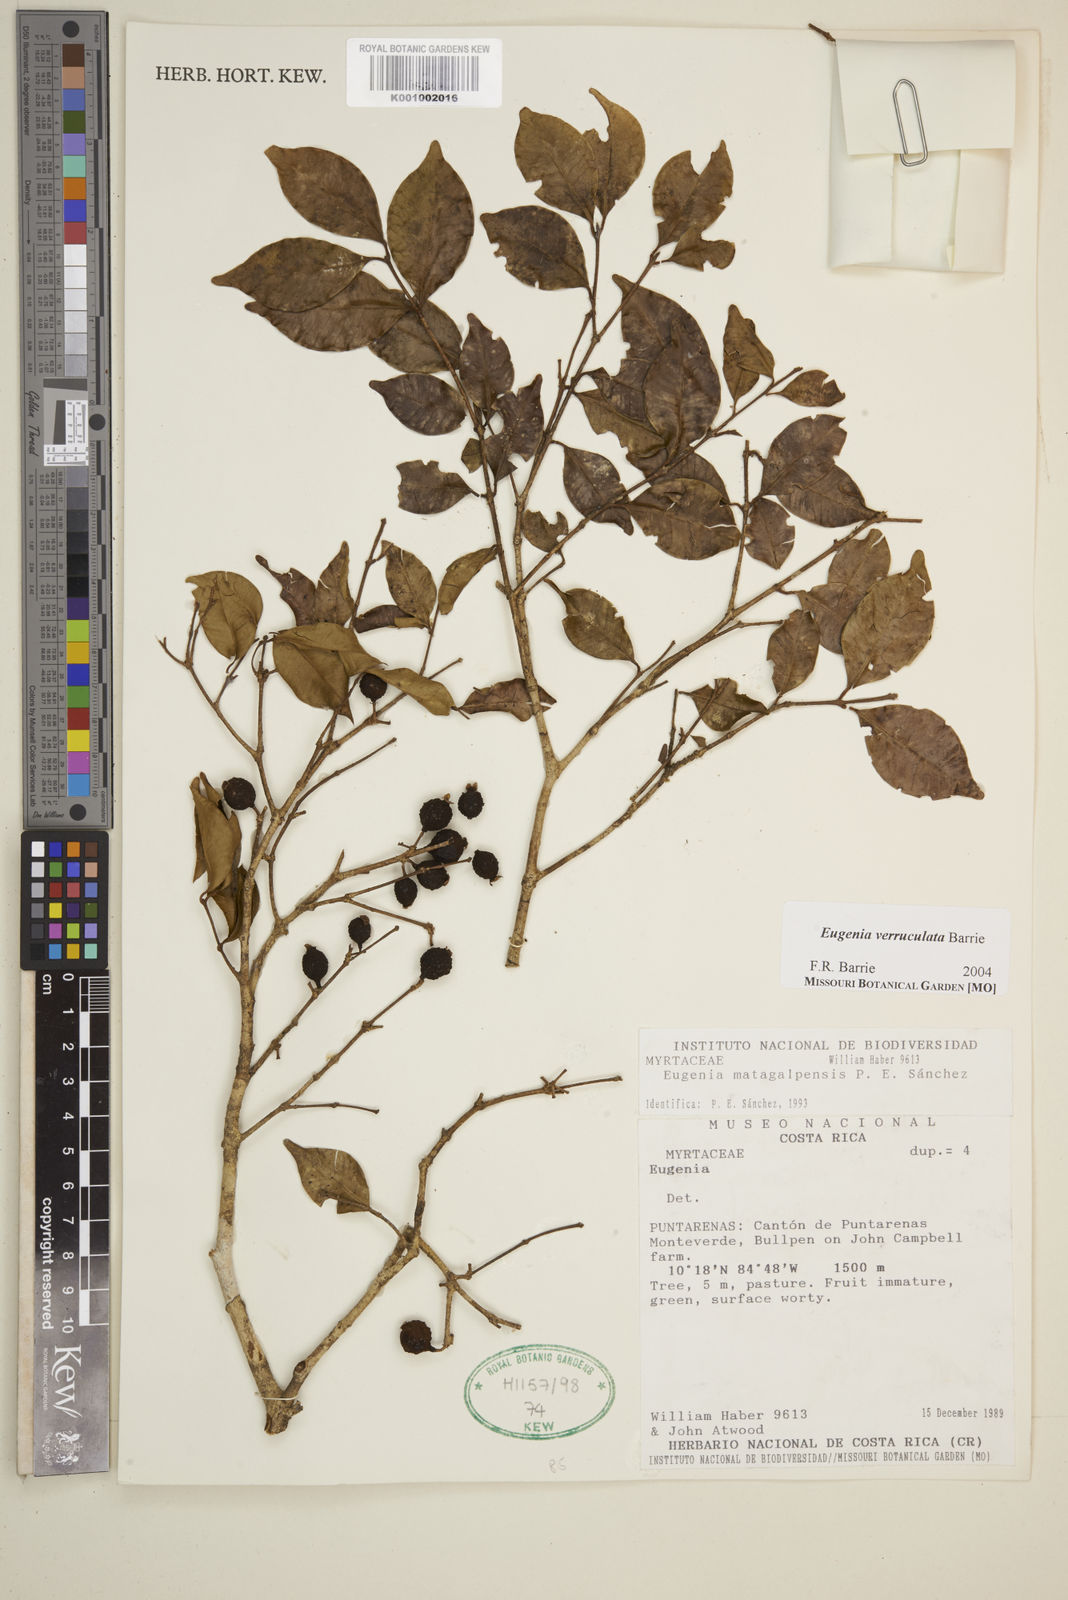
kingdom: Plantae
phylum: Tracheophyta
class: Magnoliopsida
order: Myrtales
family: Myrtaceae
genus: Eugenia
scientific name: Eugenia verruculata
